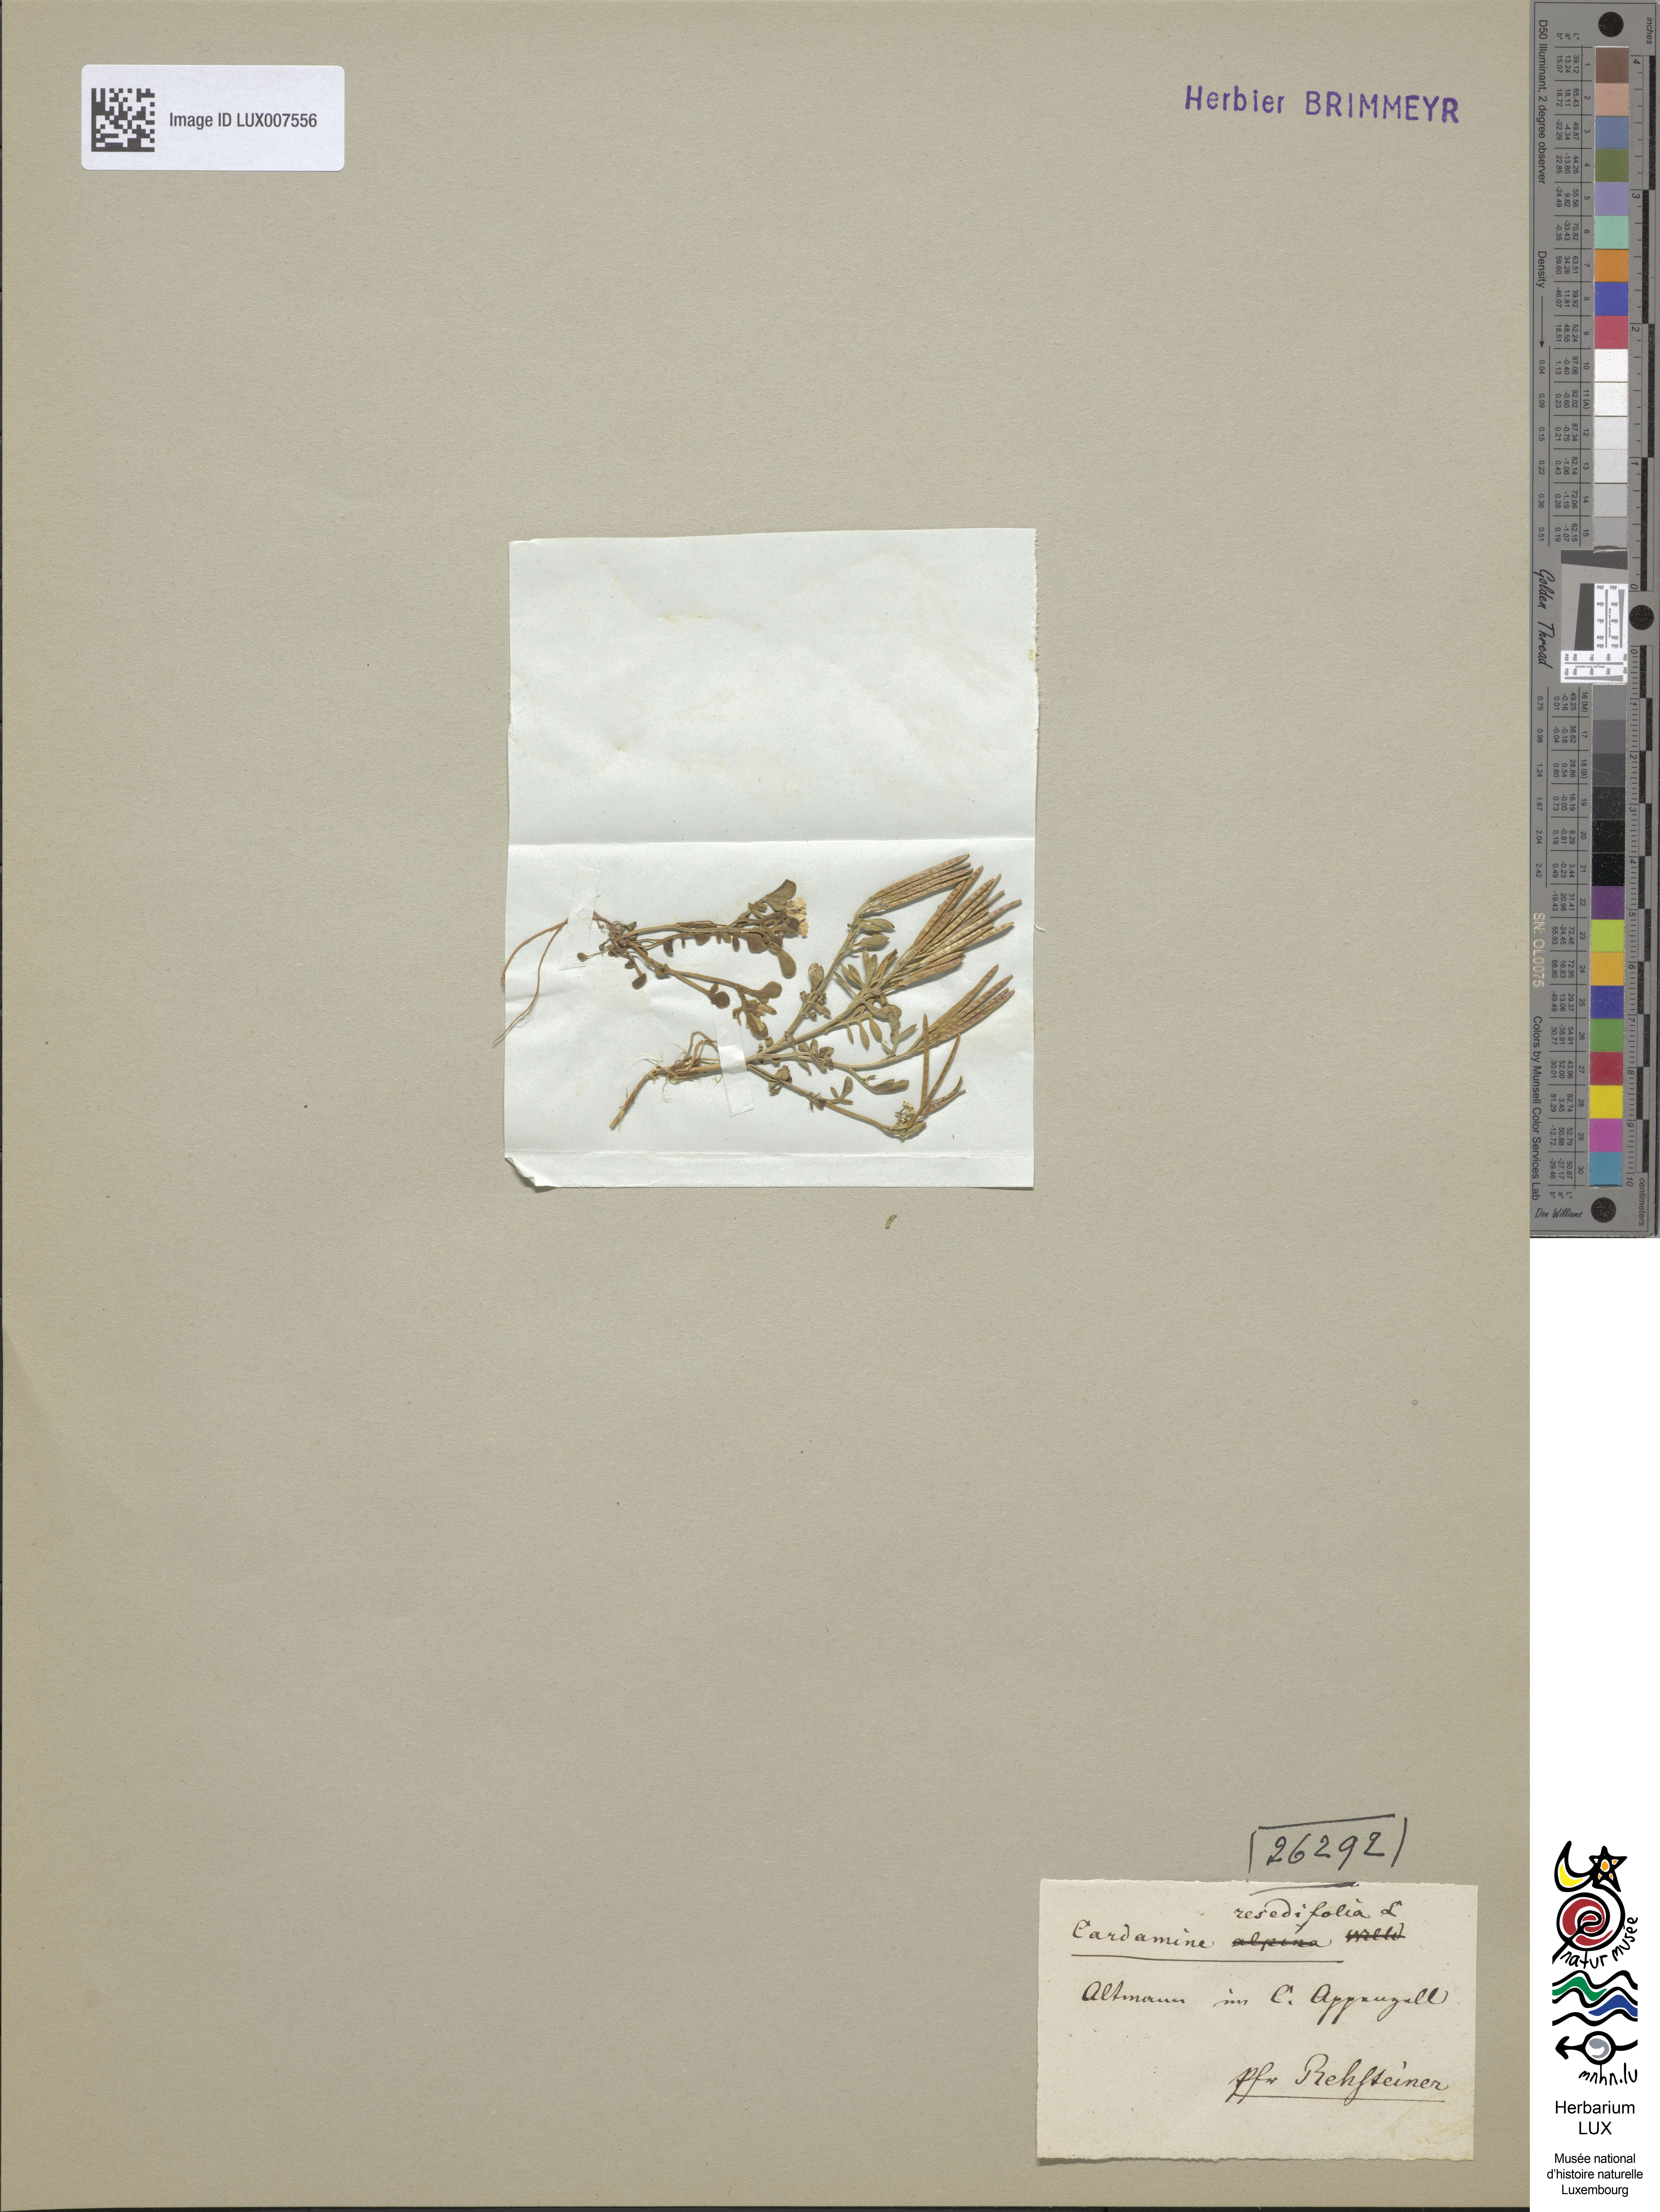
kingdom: Plantae
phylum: Tracheophyta
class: Magnoliopsida
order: Brassicales
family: Brassicaceae
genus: Cardamine
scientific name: Cardamine resedifolia
